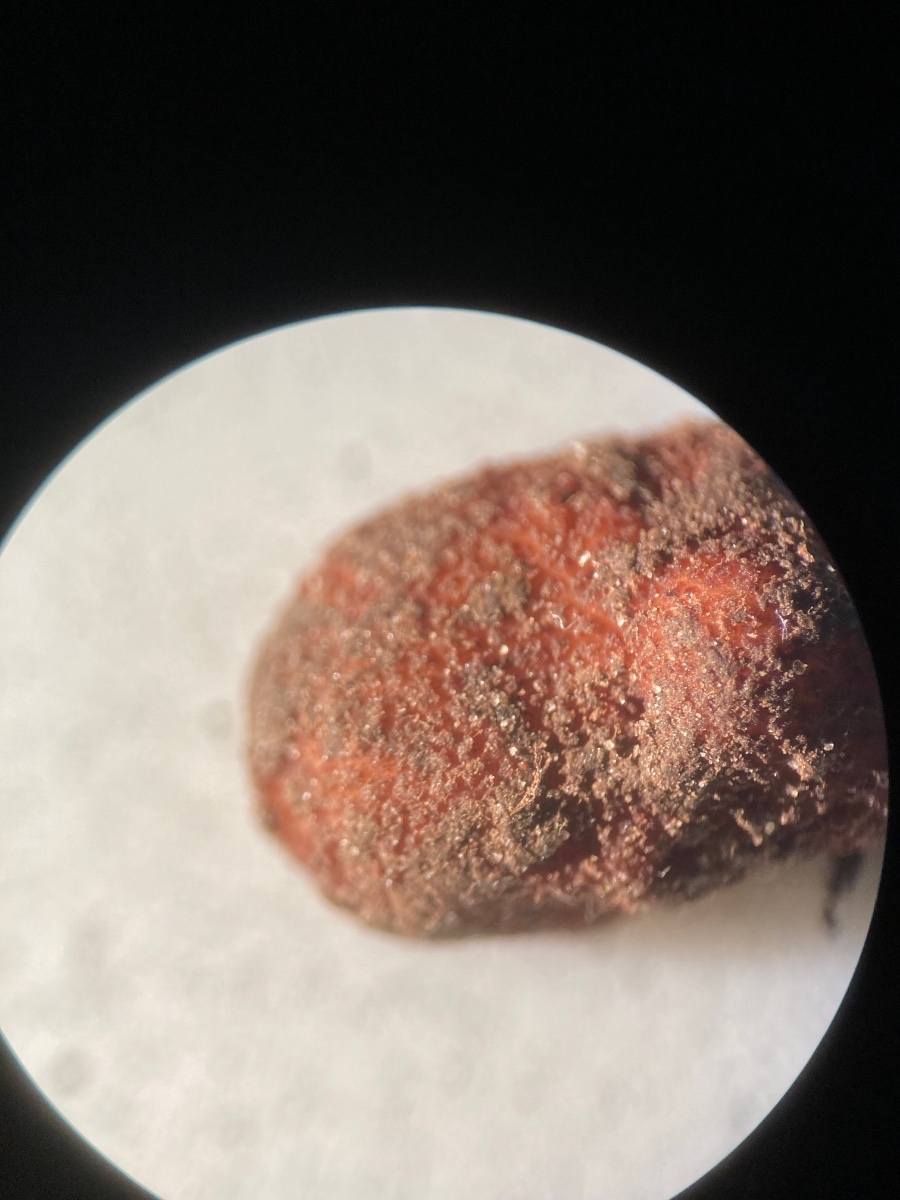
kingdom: Fungi
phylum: Ascomycota
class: Pezizomycetes
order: Pezizales
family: Helvellaceae
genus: Balsamia
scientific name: Balsamia polysperma
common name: bredsporet nøddetrøffel
